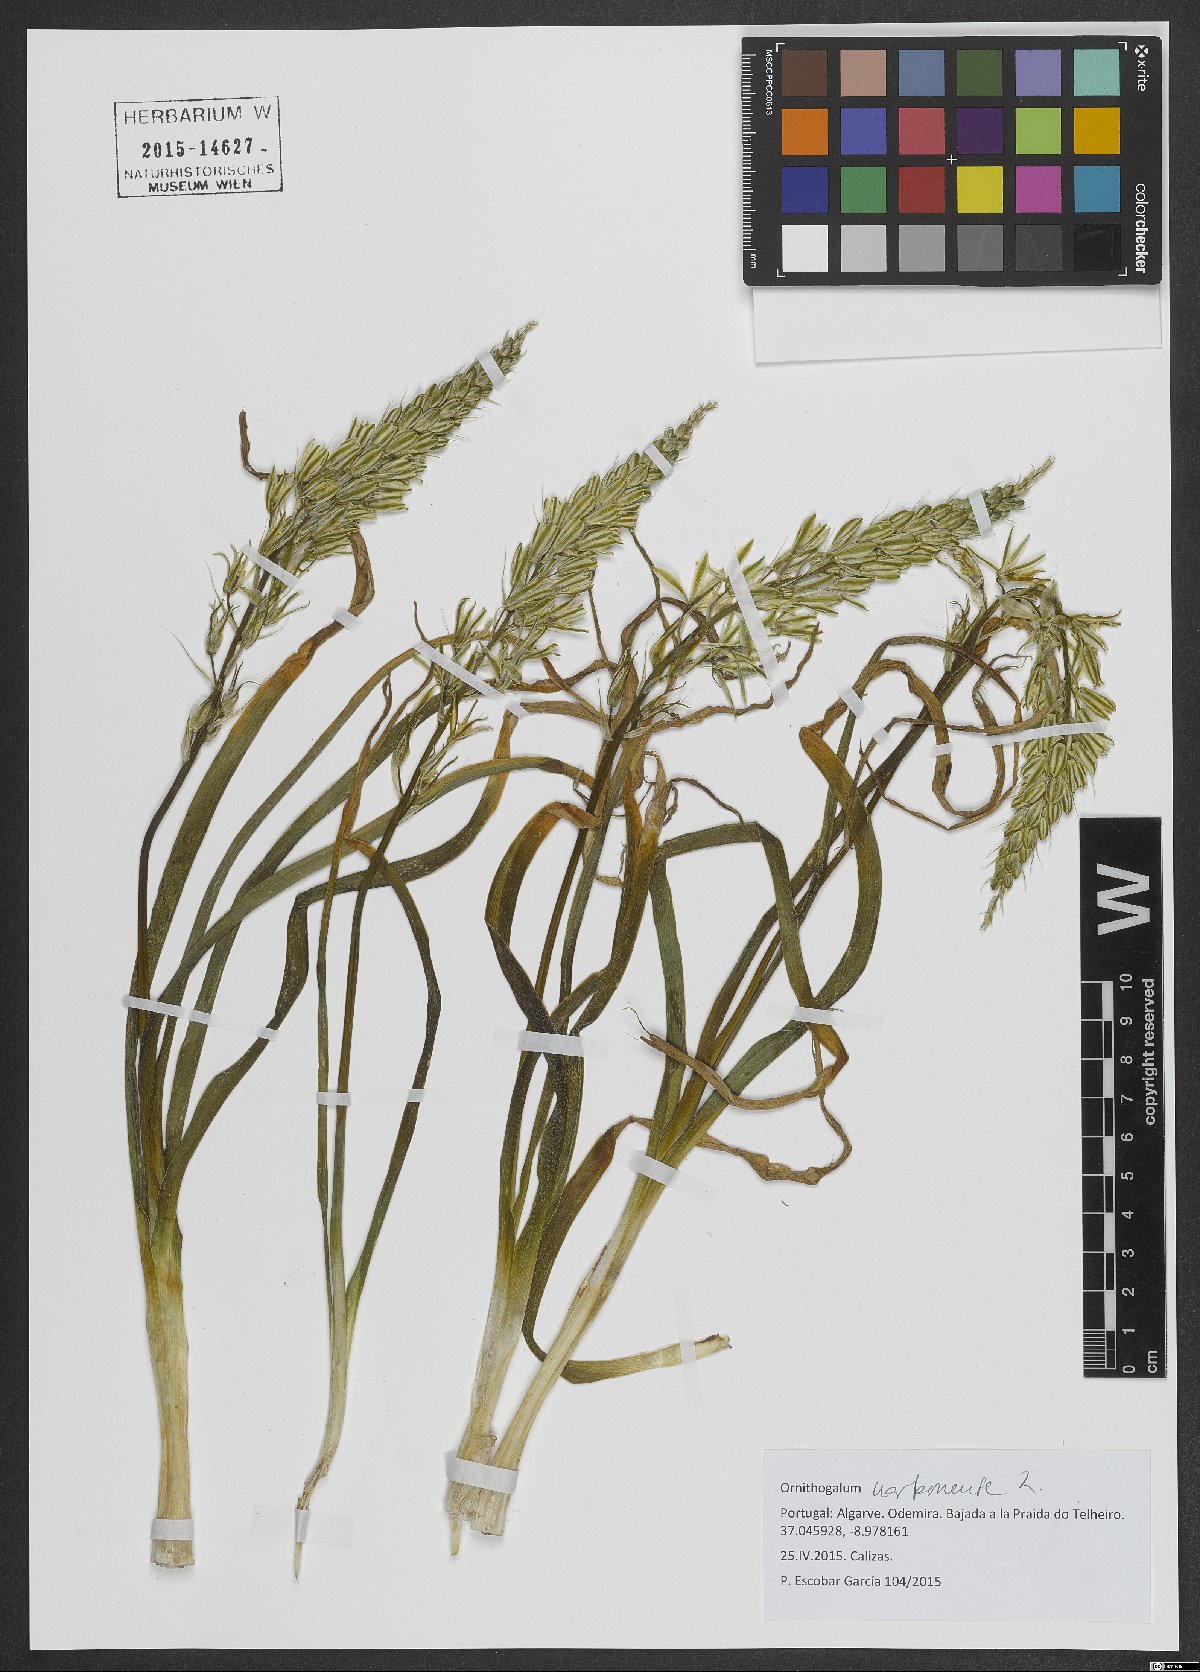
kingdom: Plantae
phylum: Tracheophyta
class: Liliopsida
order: Asparagales
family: Asparagaceae
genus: Ornithogalum
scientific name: Ornithogalum narbonense
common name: Bath-asparagus
